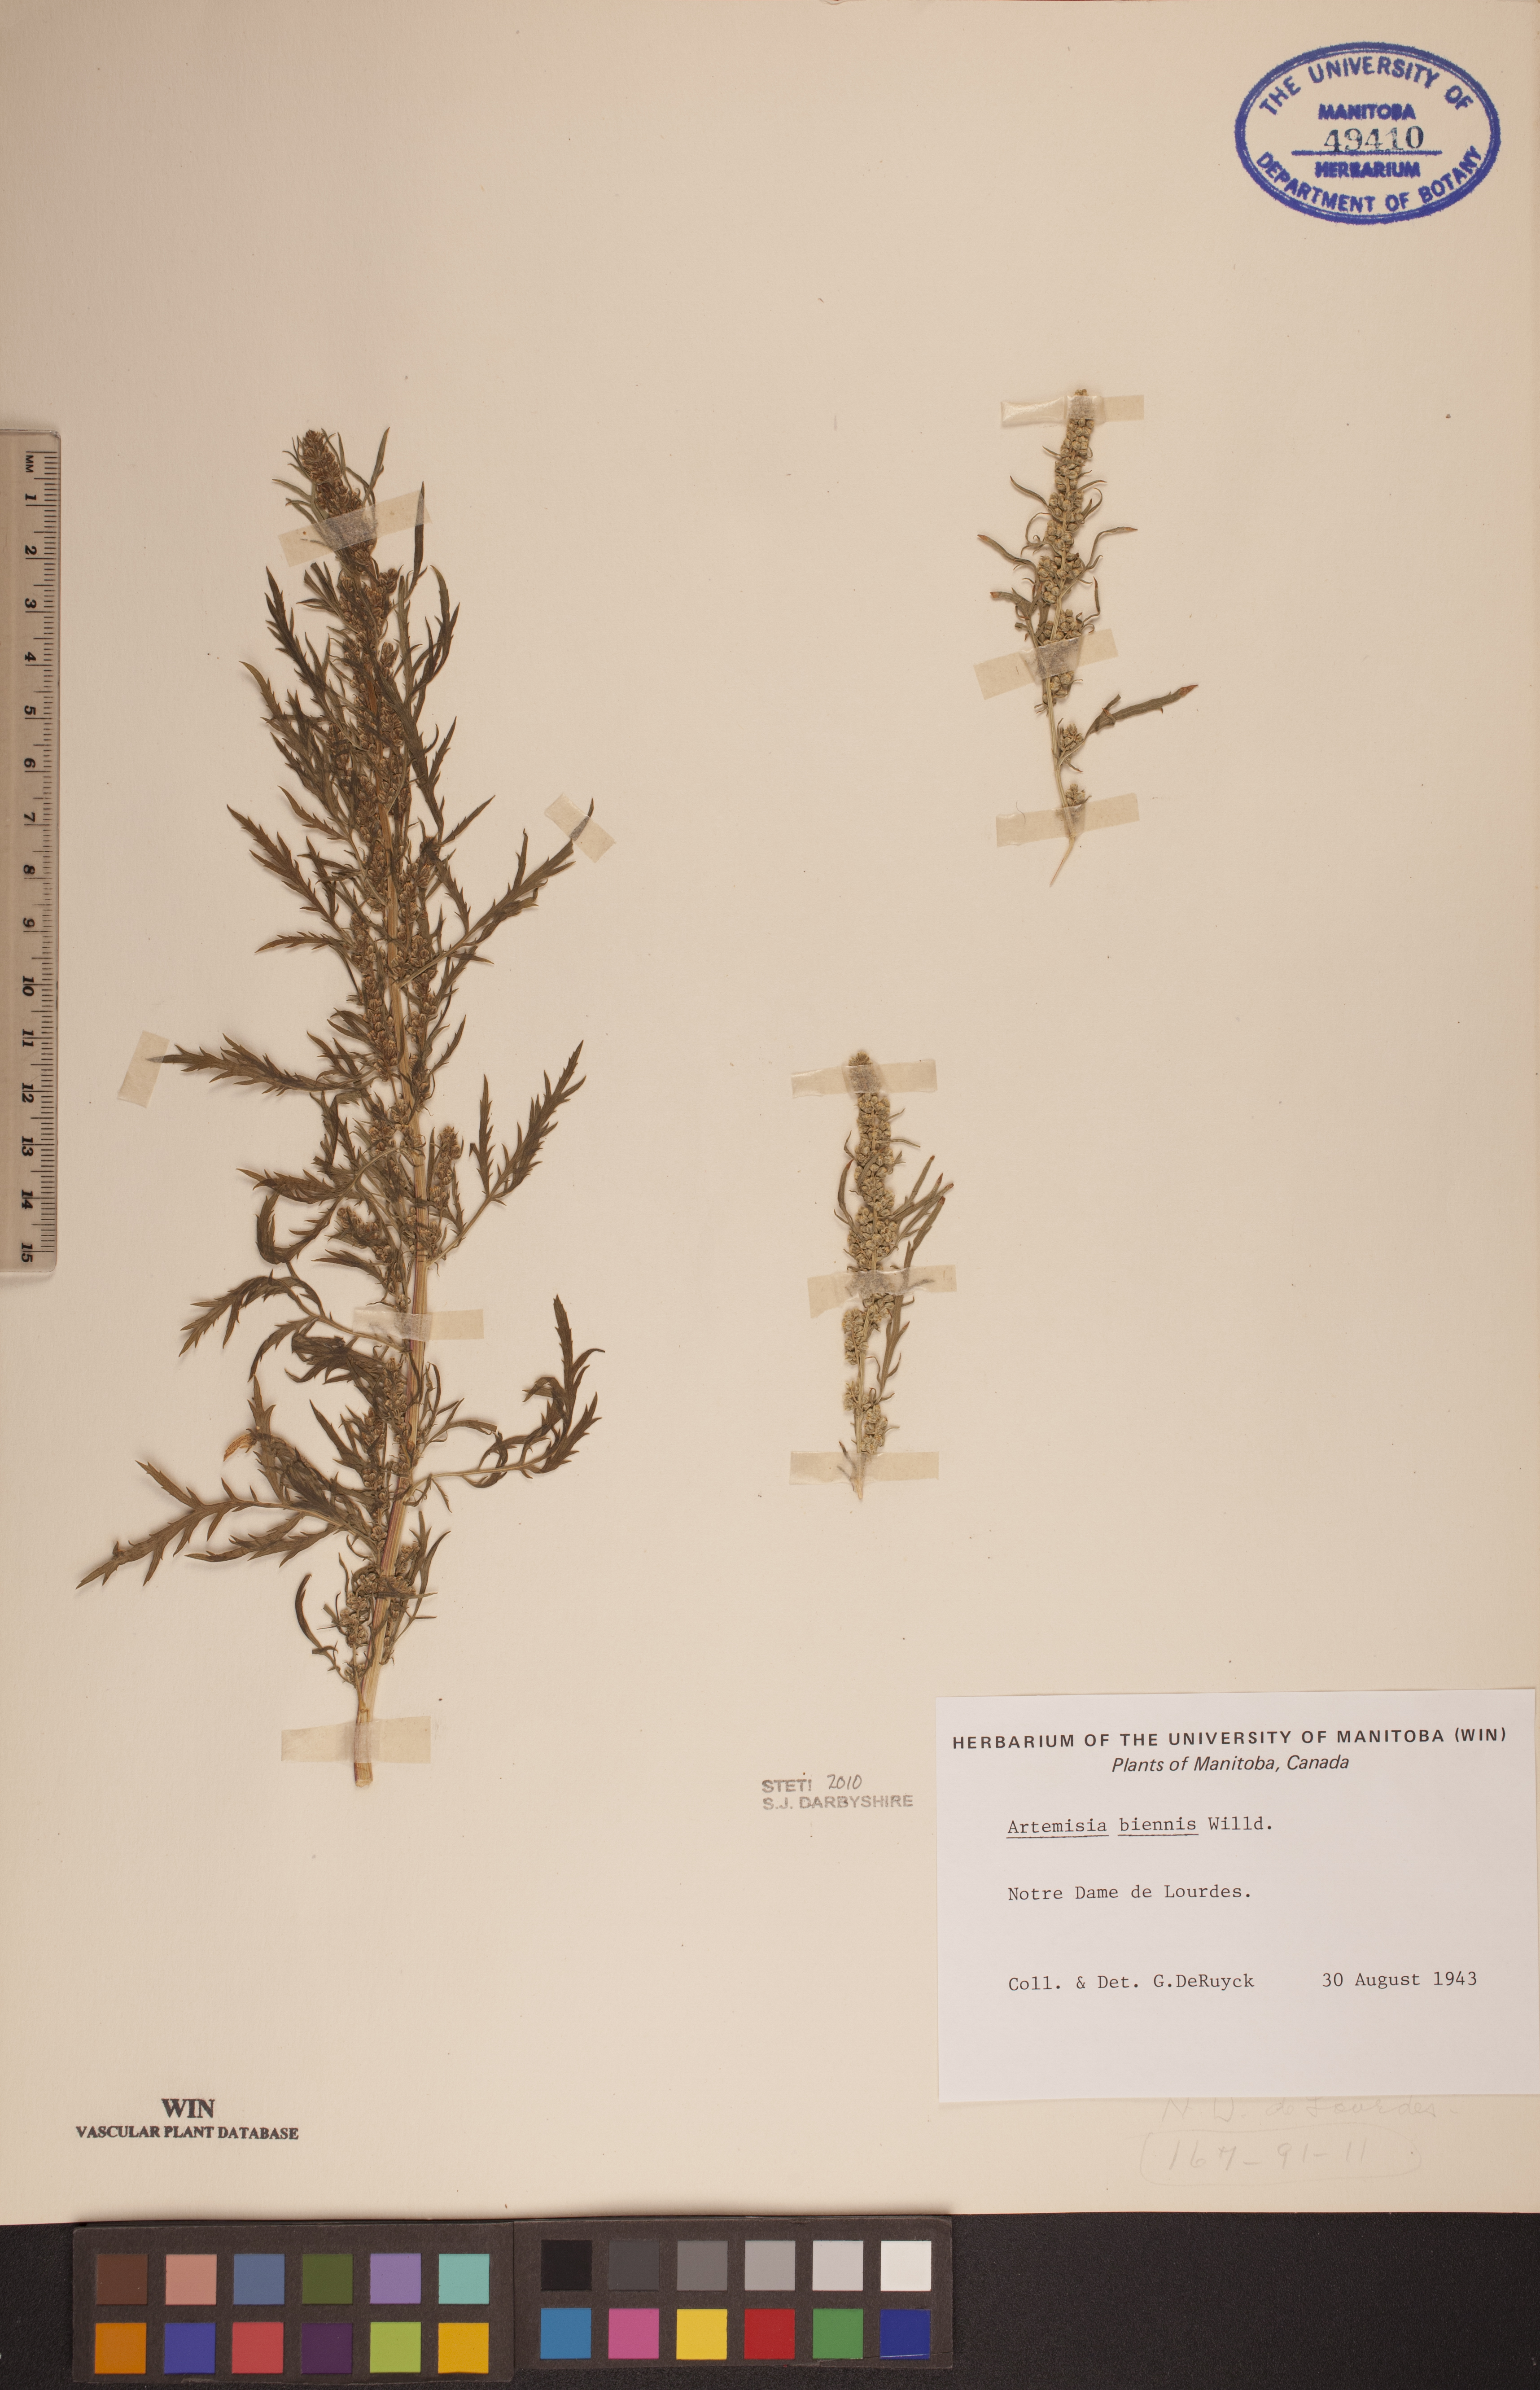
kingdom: Plantae
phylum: Tracheophyta
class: Magnoliopsida
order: Asterales
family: Asteraceae
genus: Artemisia
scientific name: Artemisia biennis
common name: Biennial wormwood
